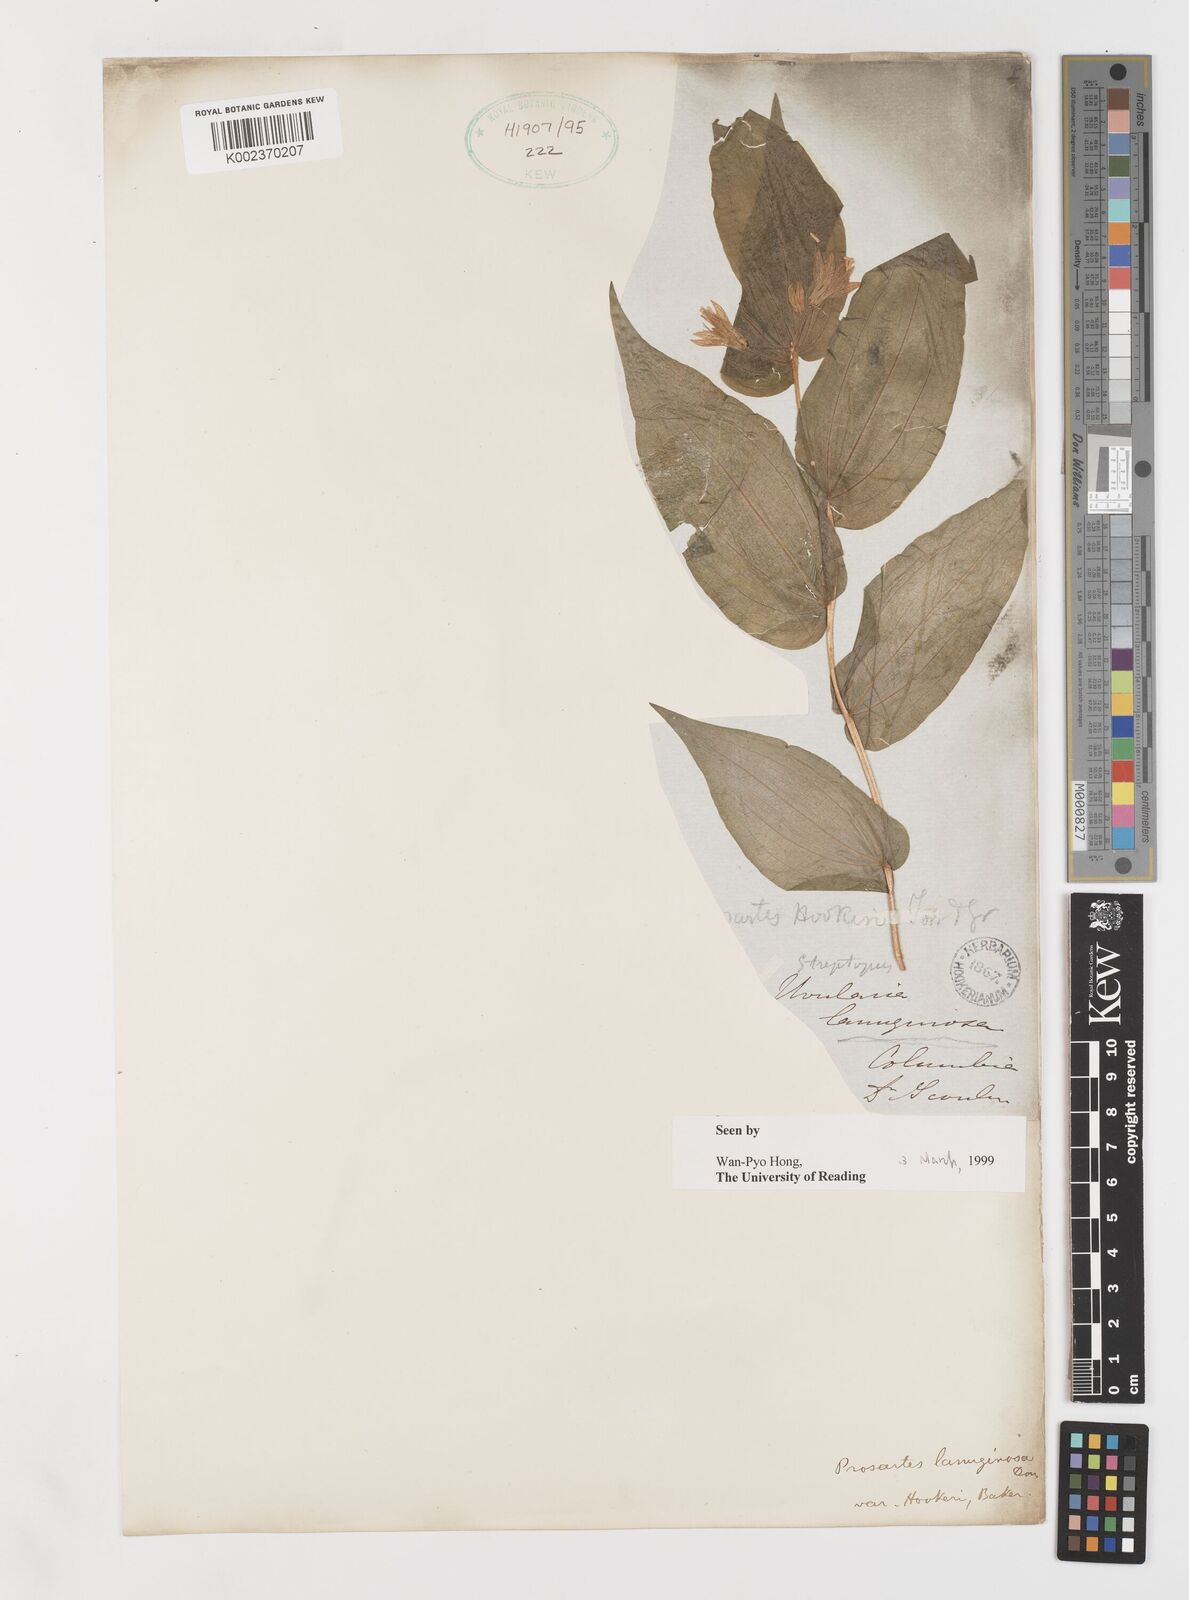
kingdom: Plantae
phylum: Tracheophyta
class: Liliopsida
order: Liliales
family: Liliaceae
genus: Prosartes
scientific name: Prosartes lanuginosa
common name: Hairy mandarin
